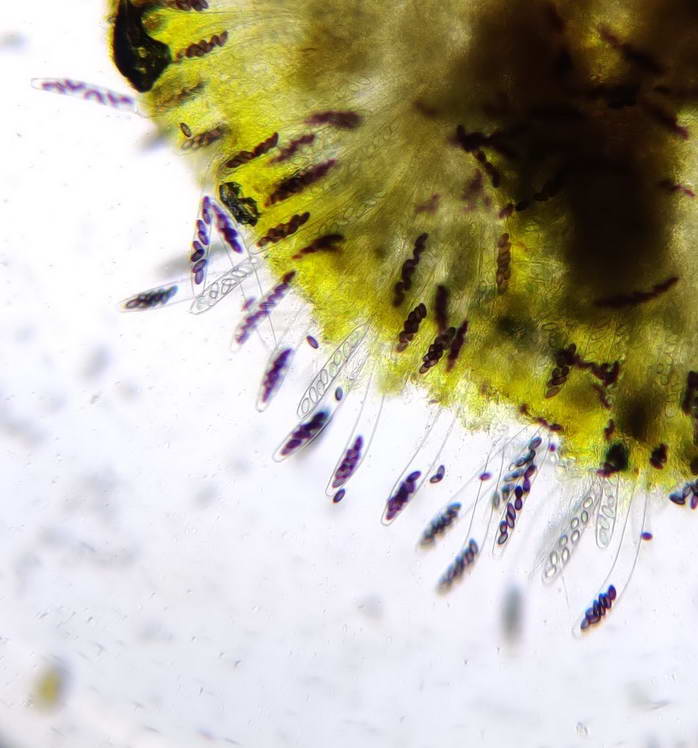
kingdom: Fungi
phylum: Ascomycota
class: Pezizomycetes
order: Pezizales
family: Ascobolaceae
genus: Ascobolus
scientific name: Ascobolus furfuraceus
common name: almindelig prikbæger
